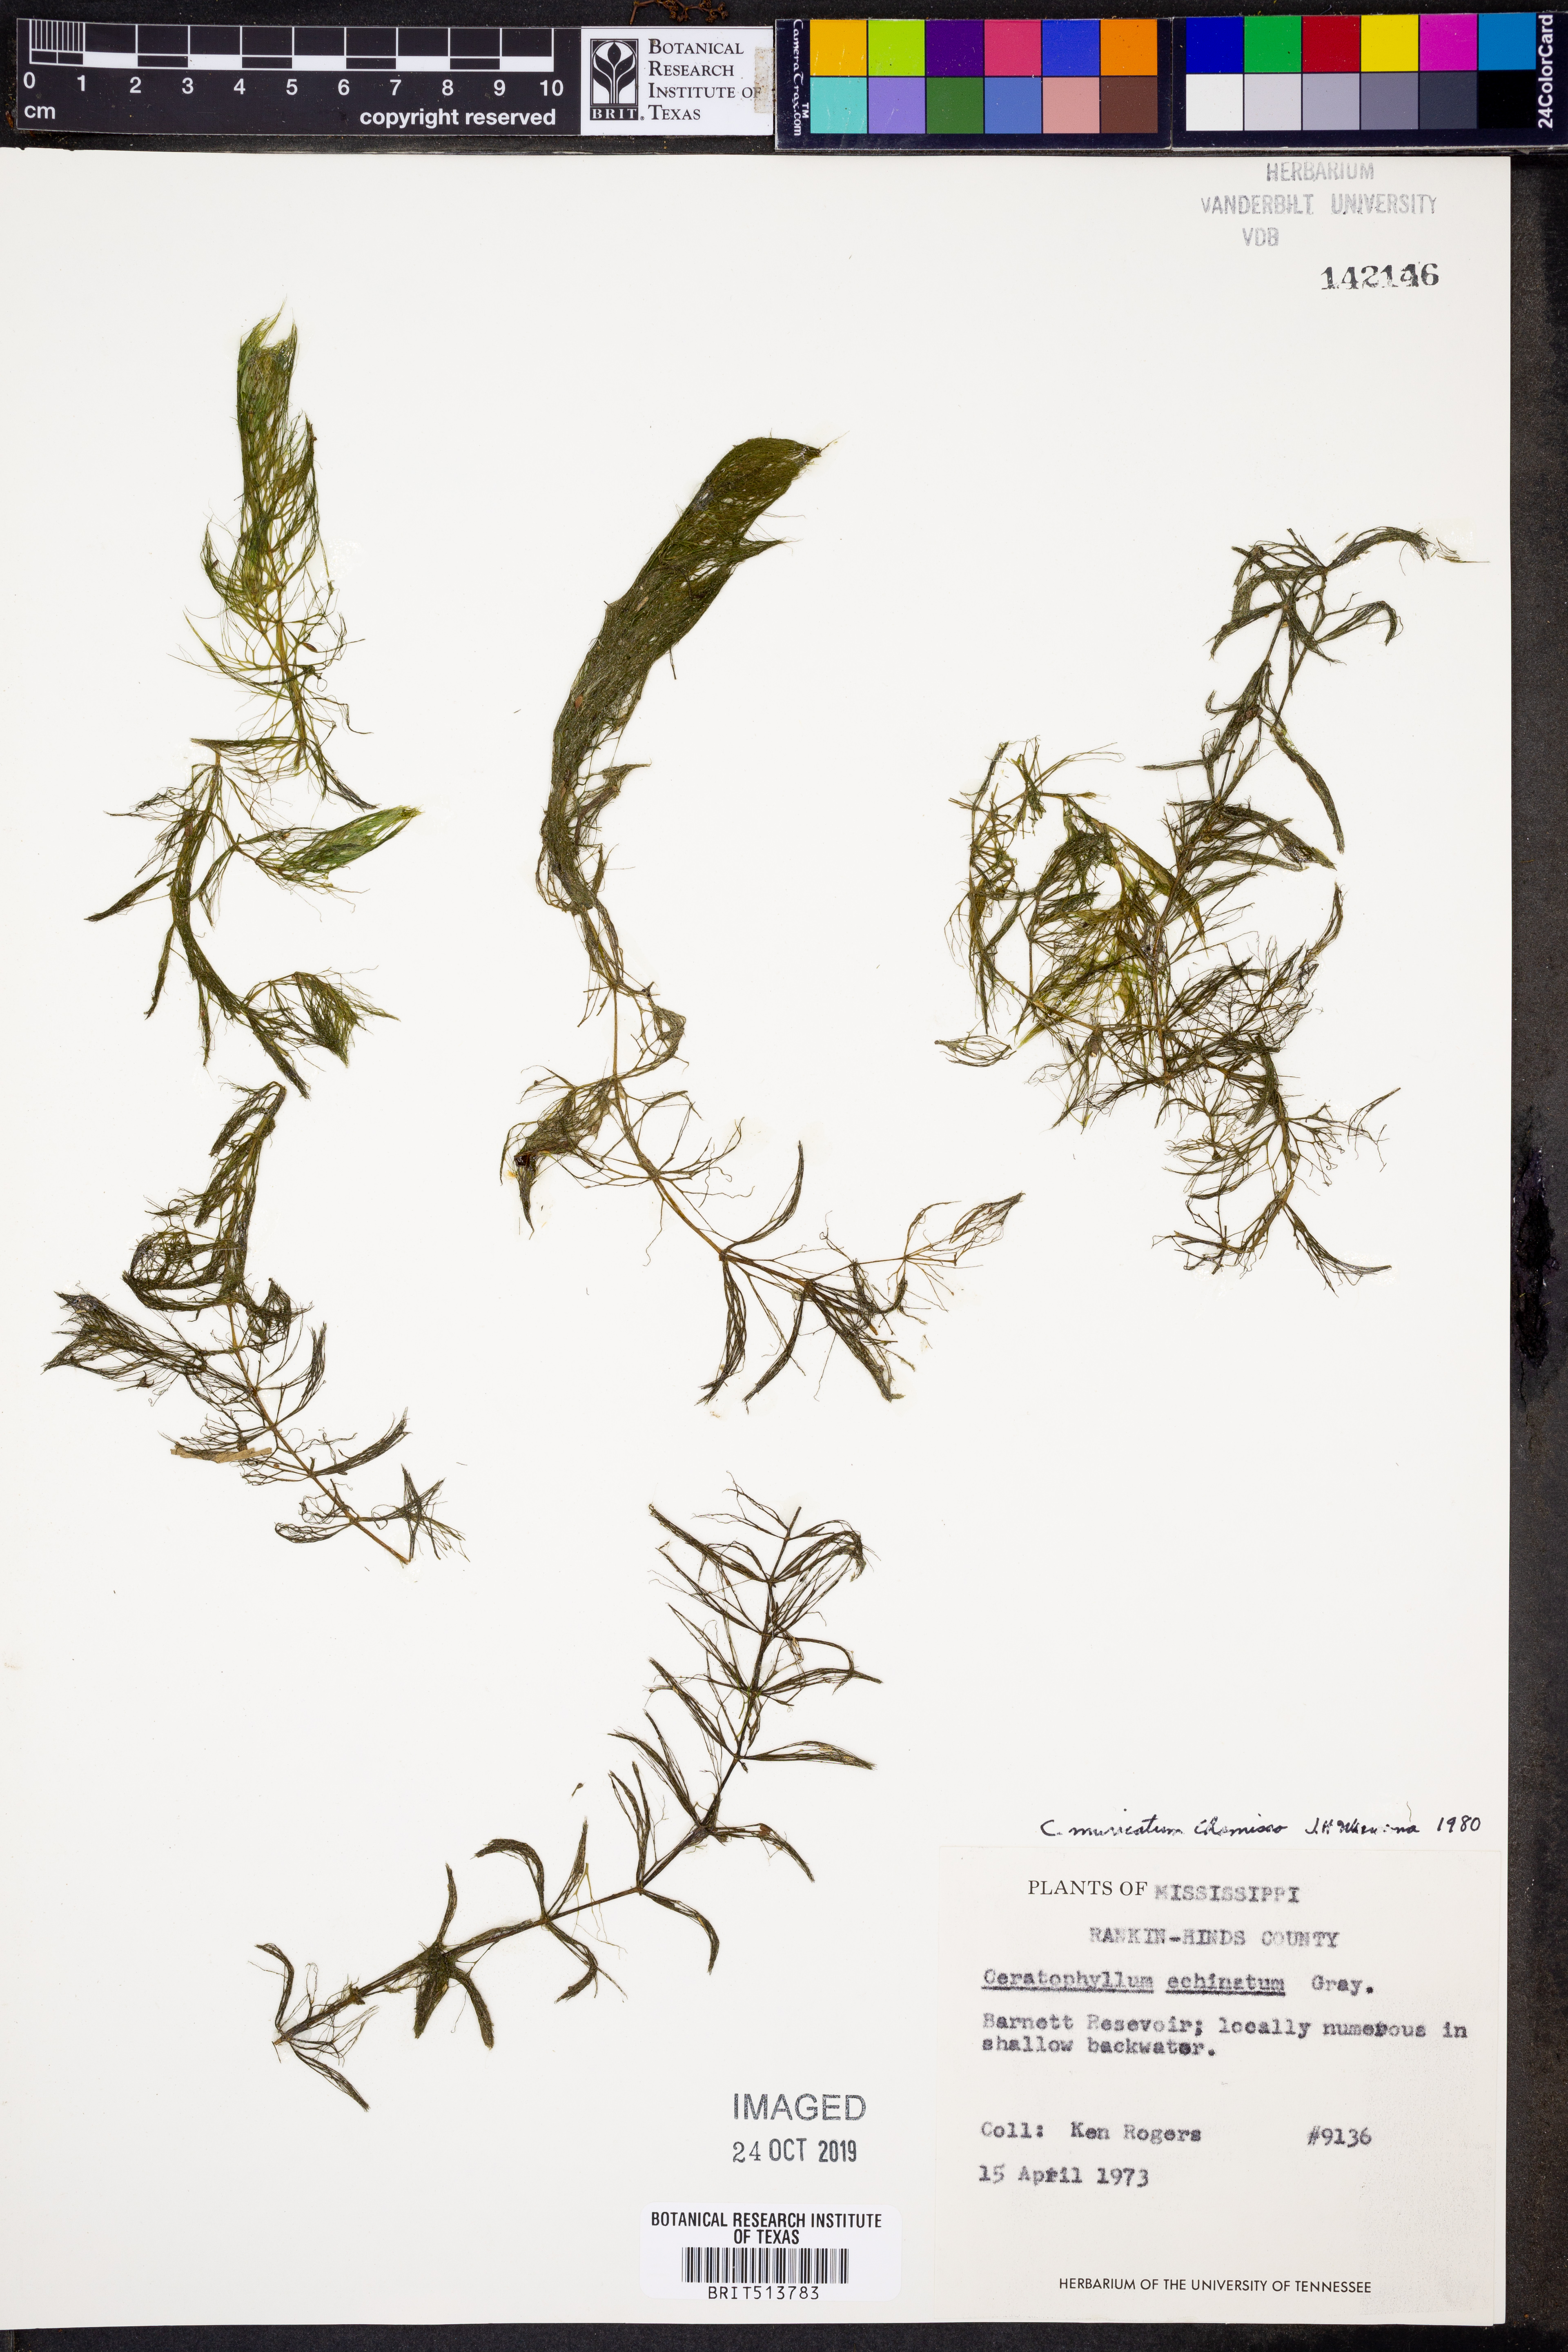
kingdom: Plantae
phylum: Tracheophyta
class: Magnoliopsida
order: Ceratophyllales
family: Ceratophyllaceae
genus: Ceratophyllum
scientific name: Ceratophyllum muricatum
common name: Prickly hornwort
